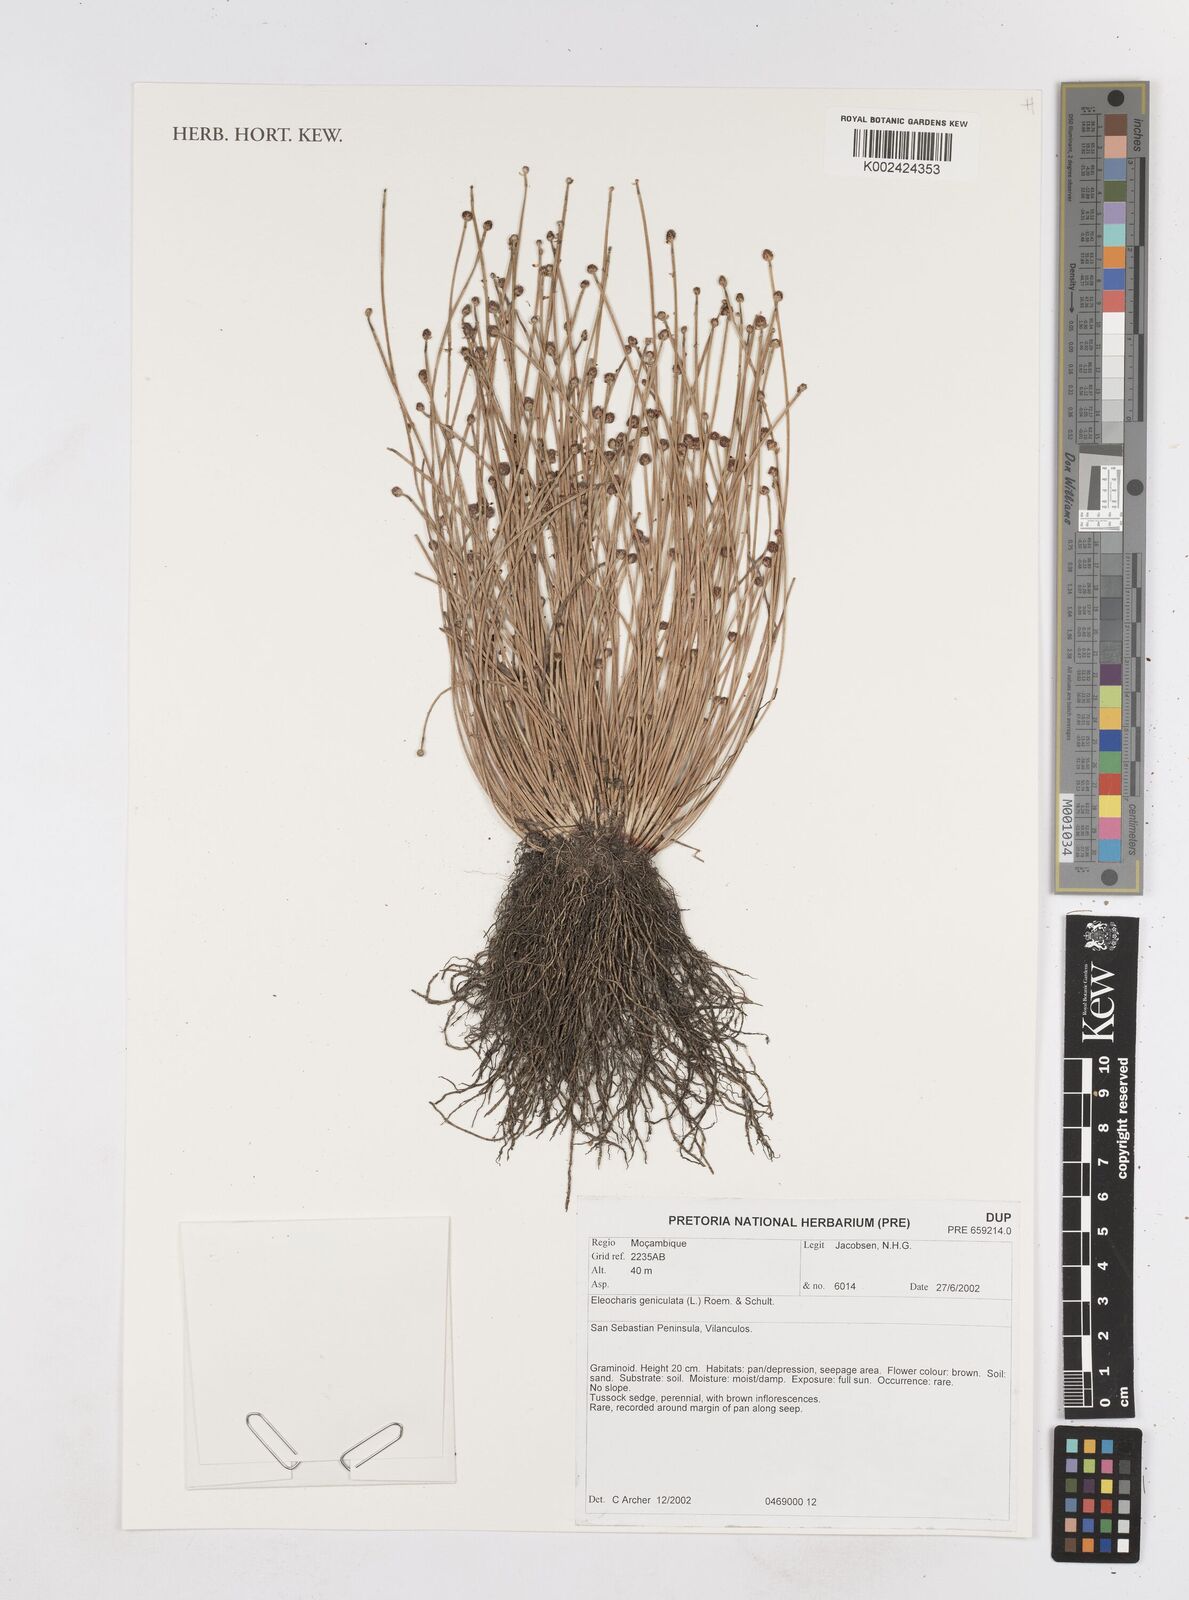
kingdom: Plantae
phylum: Tracheophyta
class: Liliopsida
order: Poales
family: Cyperaceae
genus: Eleocharis
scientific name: Eleocharis geniculata
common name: Canada spikesedge
